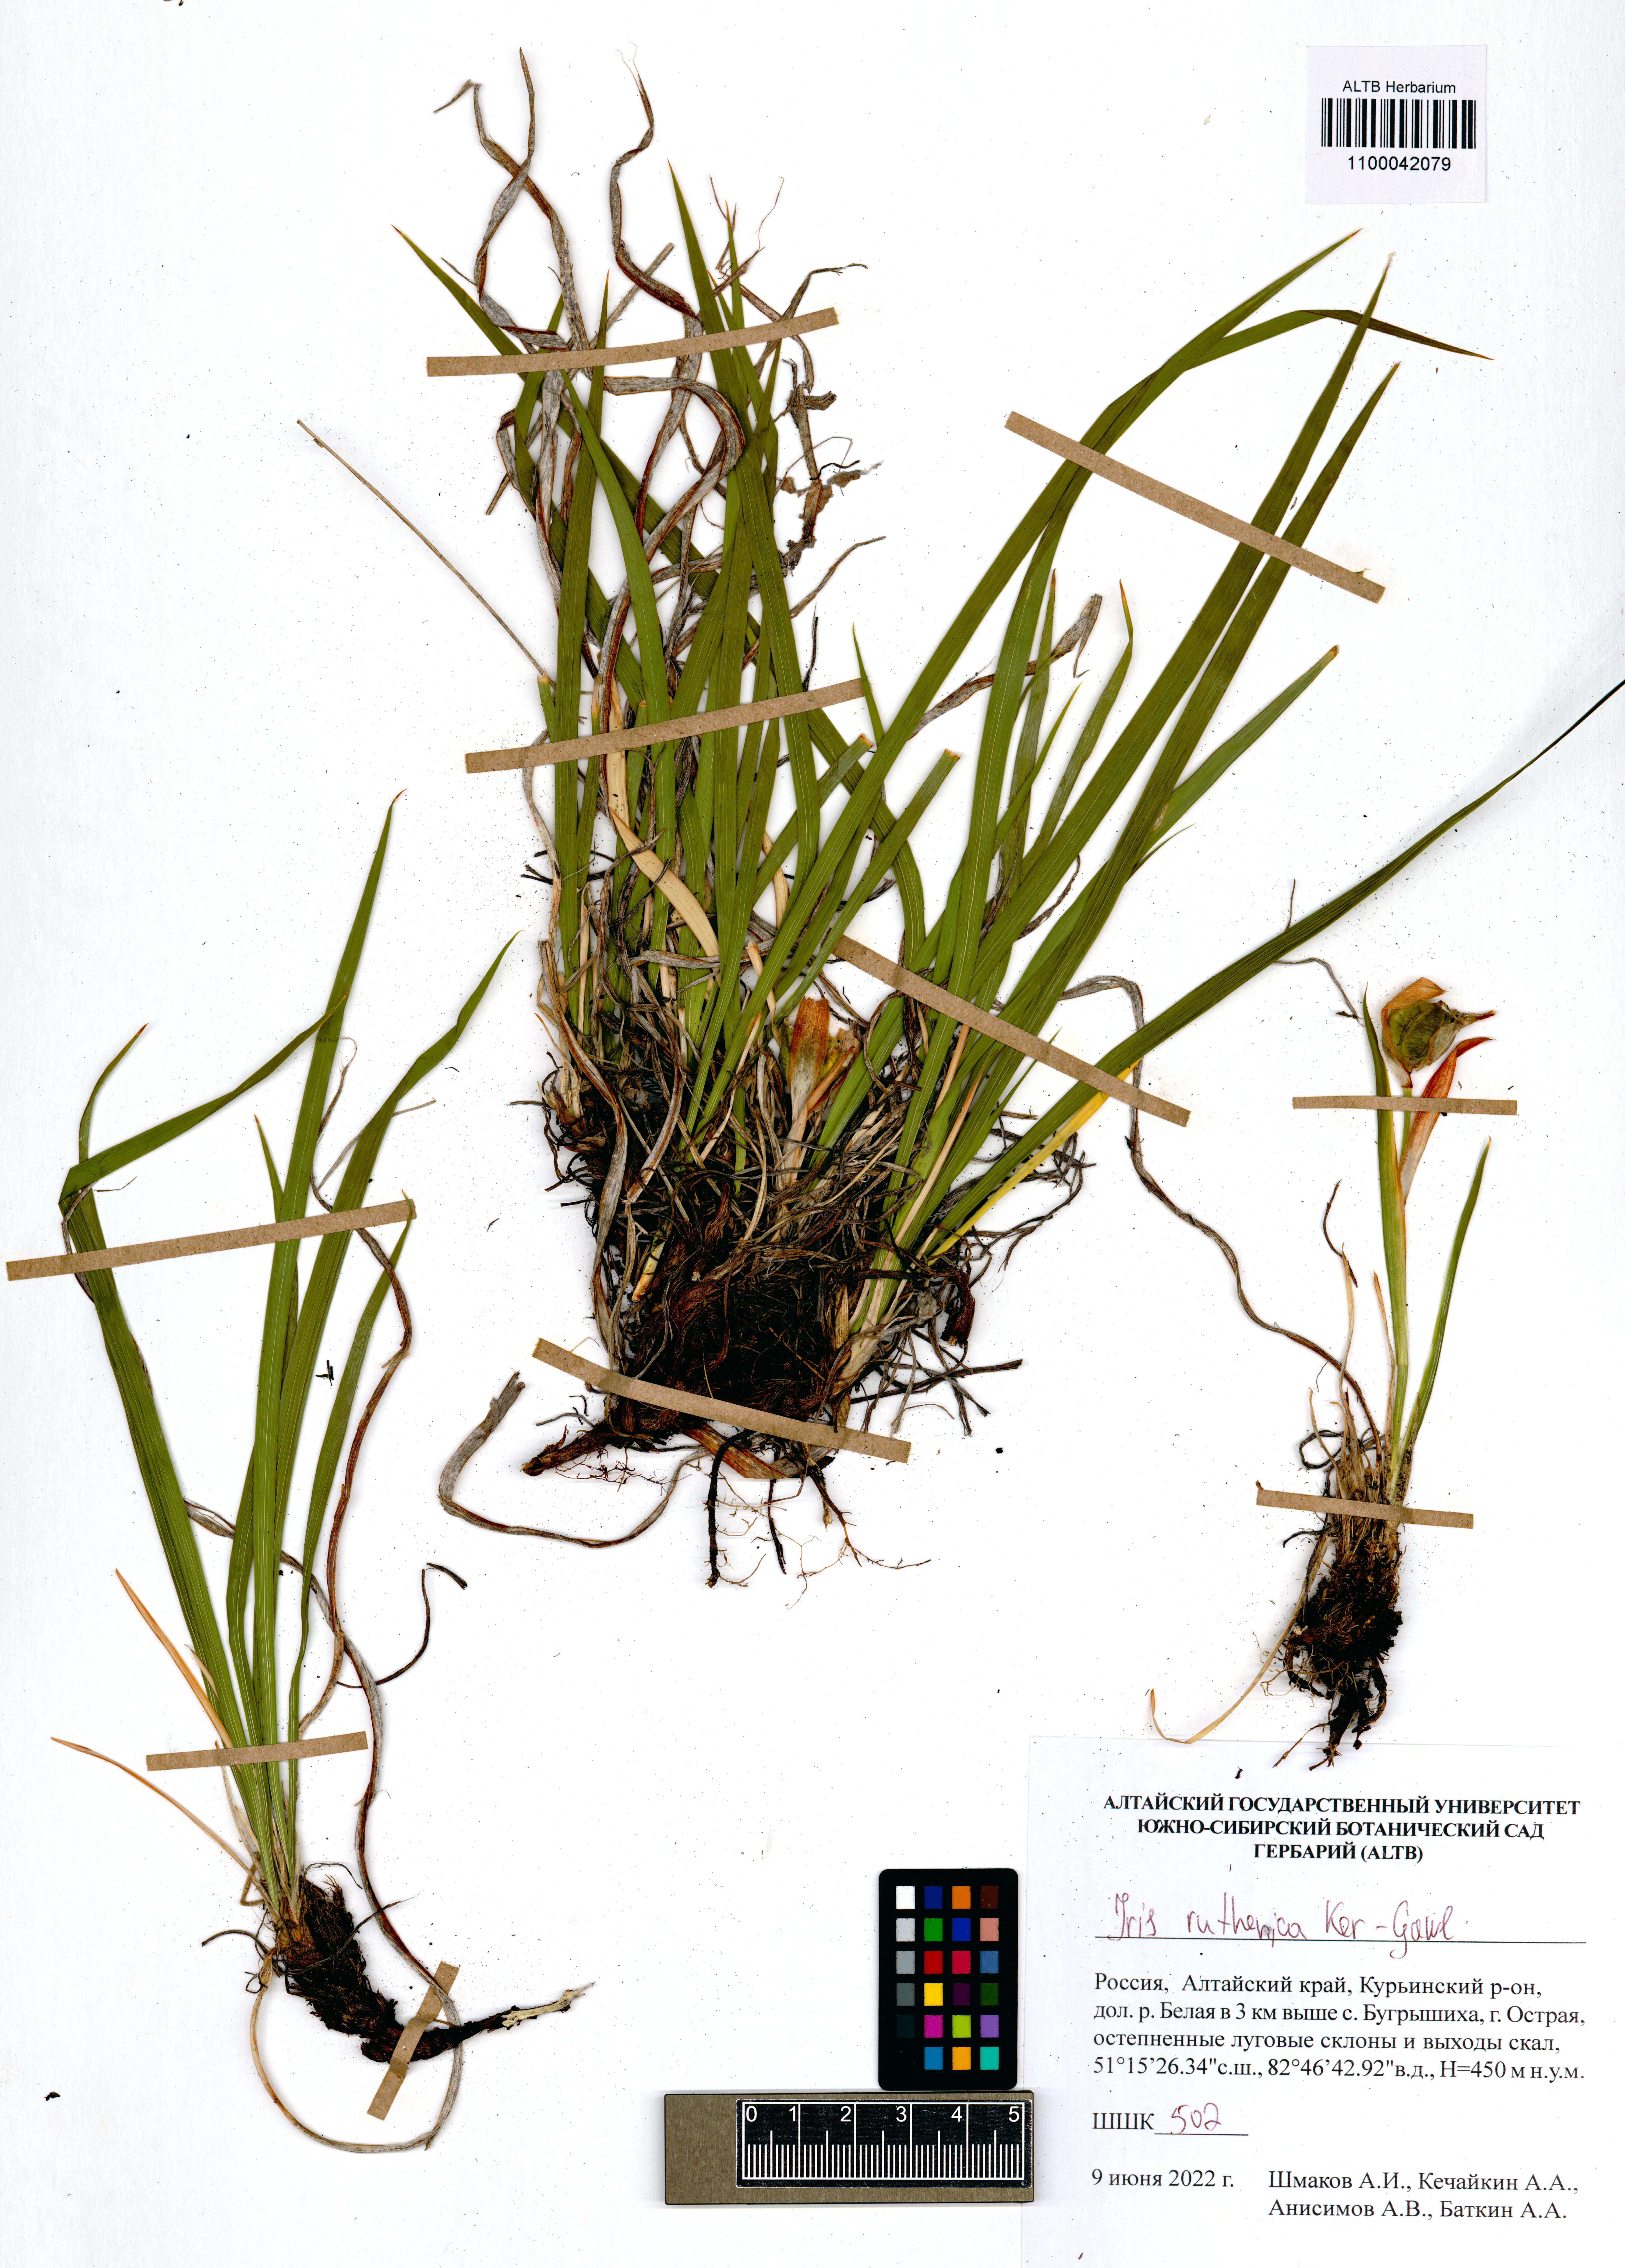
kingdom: Plantae
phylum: Tracheophyta
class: Liliopsida
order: Asparagales
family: Iridaceae
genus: Iris
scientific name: Iris ruthenica
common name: Purple-bract iris
